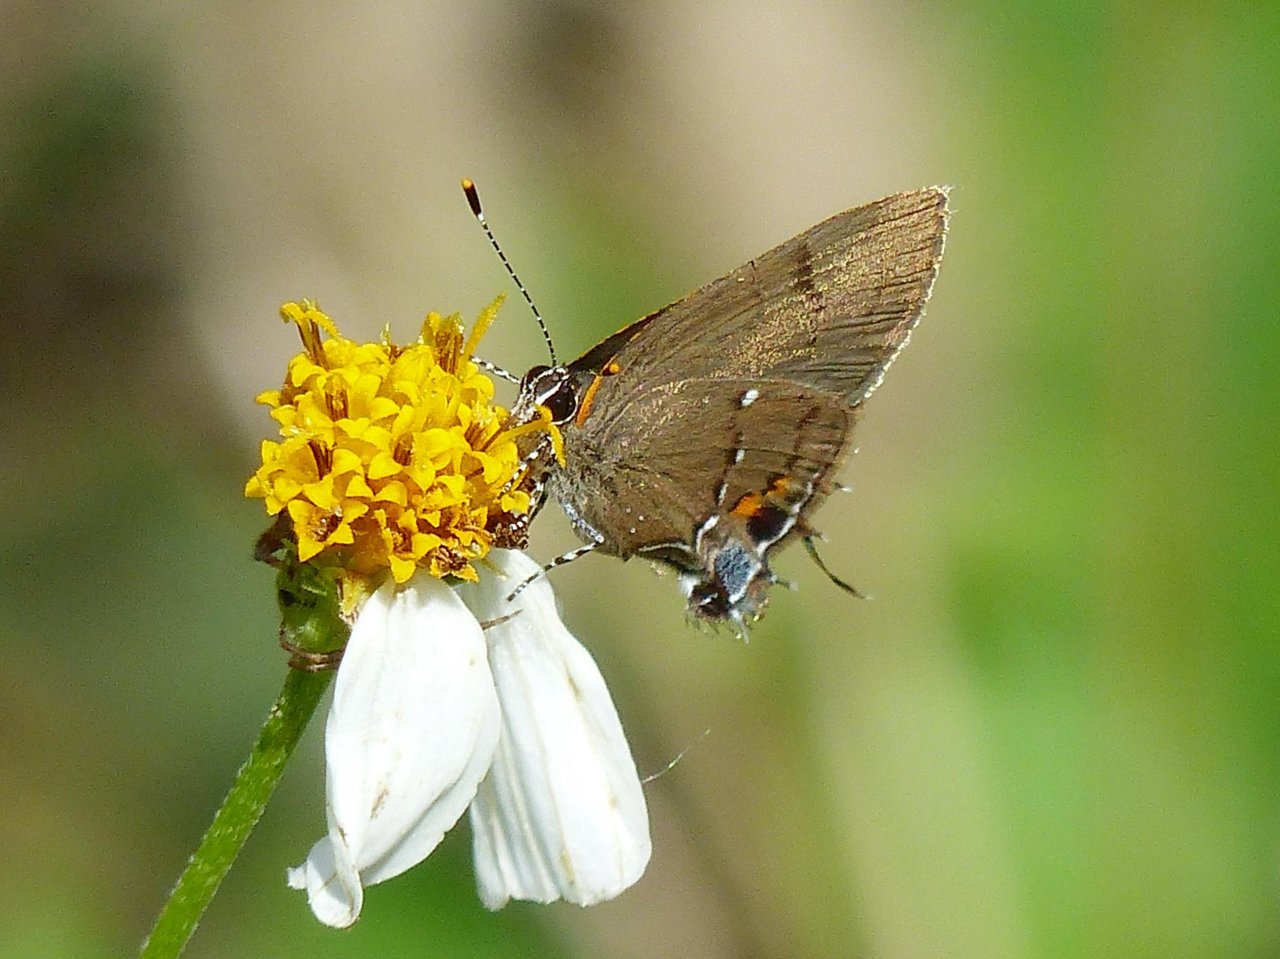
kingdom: Animalia
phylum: Arthropoda
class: Insecta
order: Lepidoptera
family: Lycaenidae
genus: Thecla
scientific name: Thecla angelia
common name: Fulvous Hairstreak
